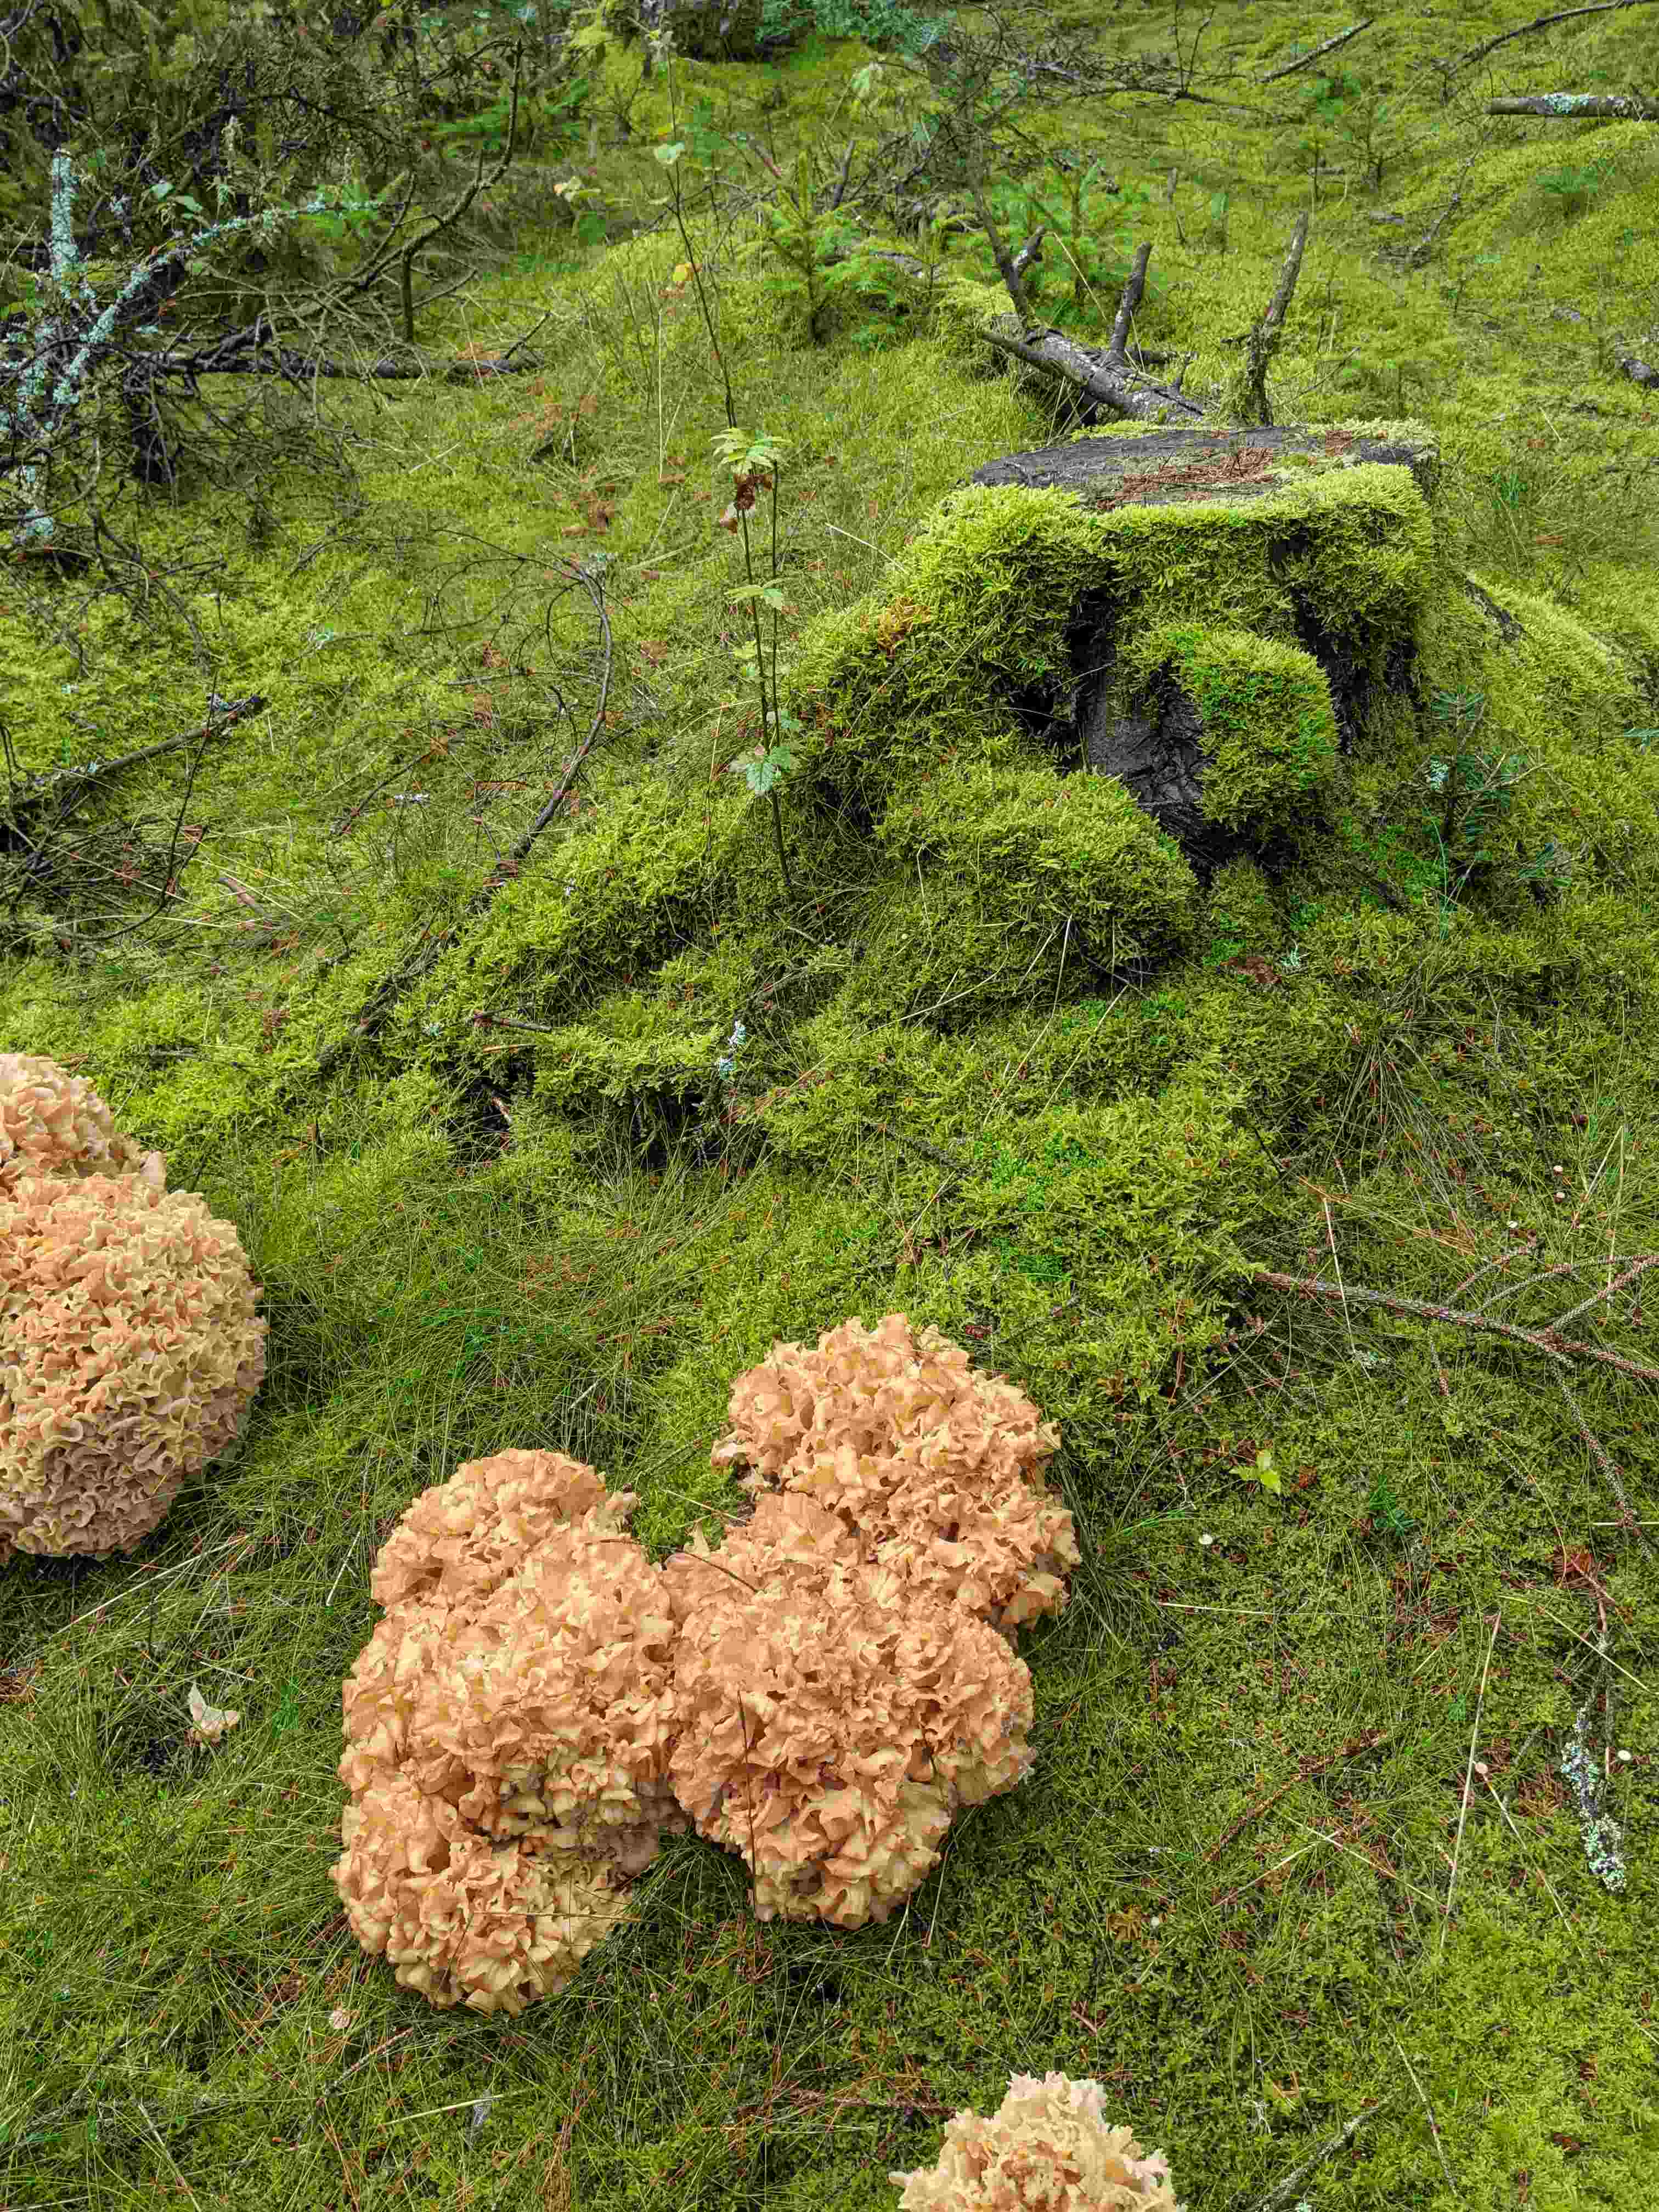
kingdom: Fungi
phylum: Basidiomycota
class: Agaricomycetes
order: Polyporales
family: Sparassidaceae
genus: Sparassis
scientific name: Sparassis crispa
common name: kruset blomkålssvamp
